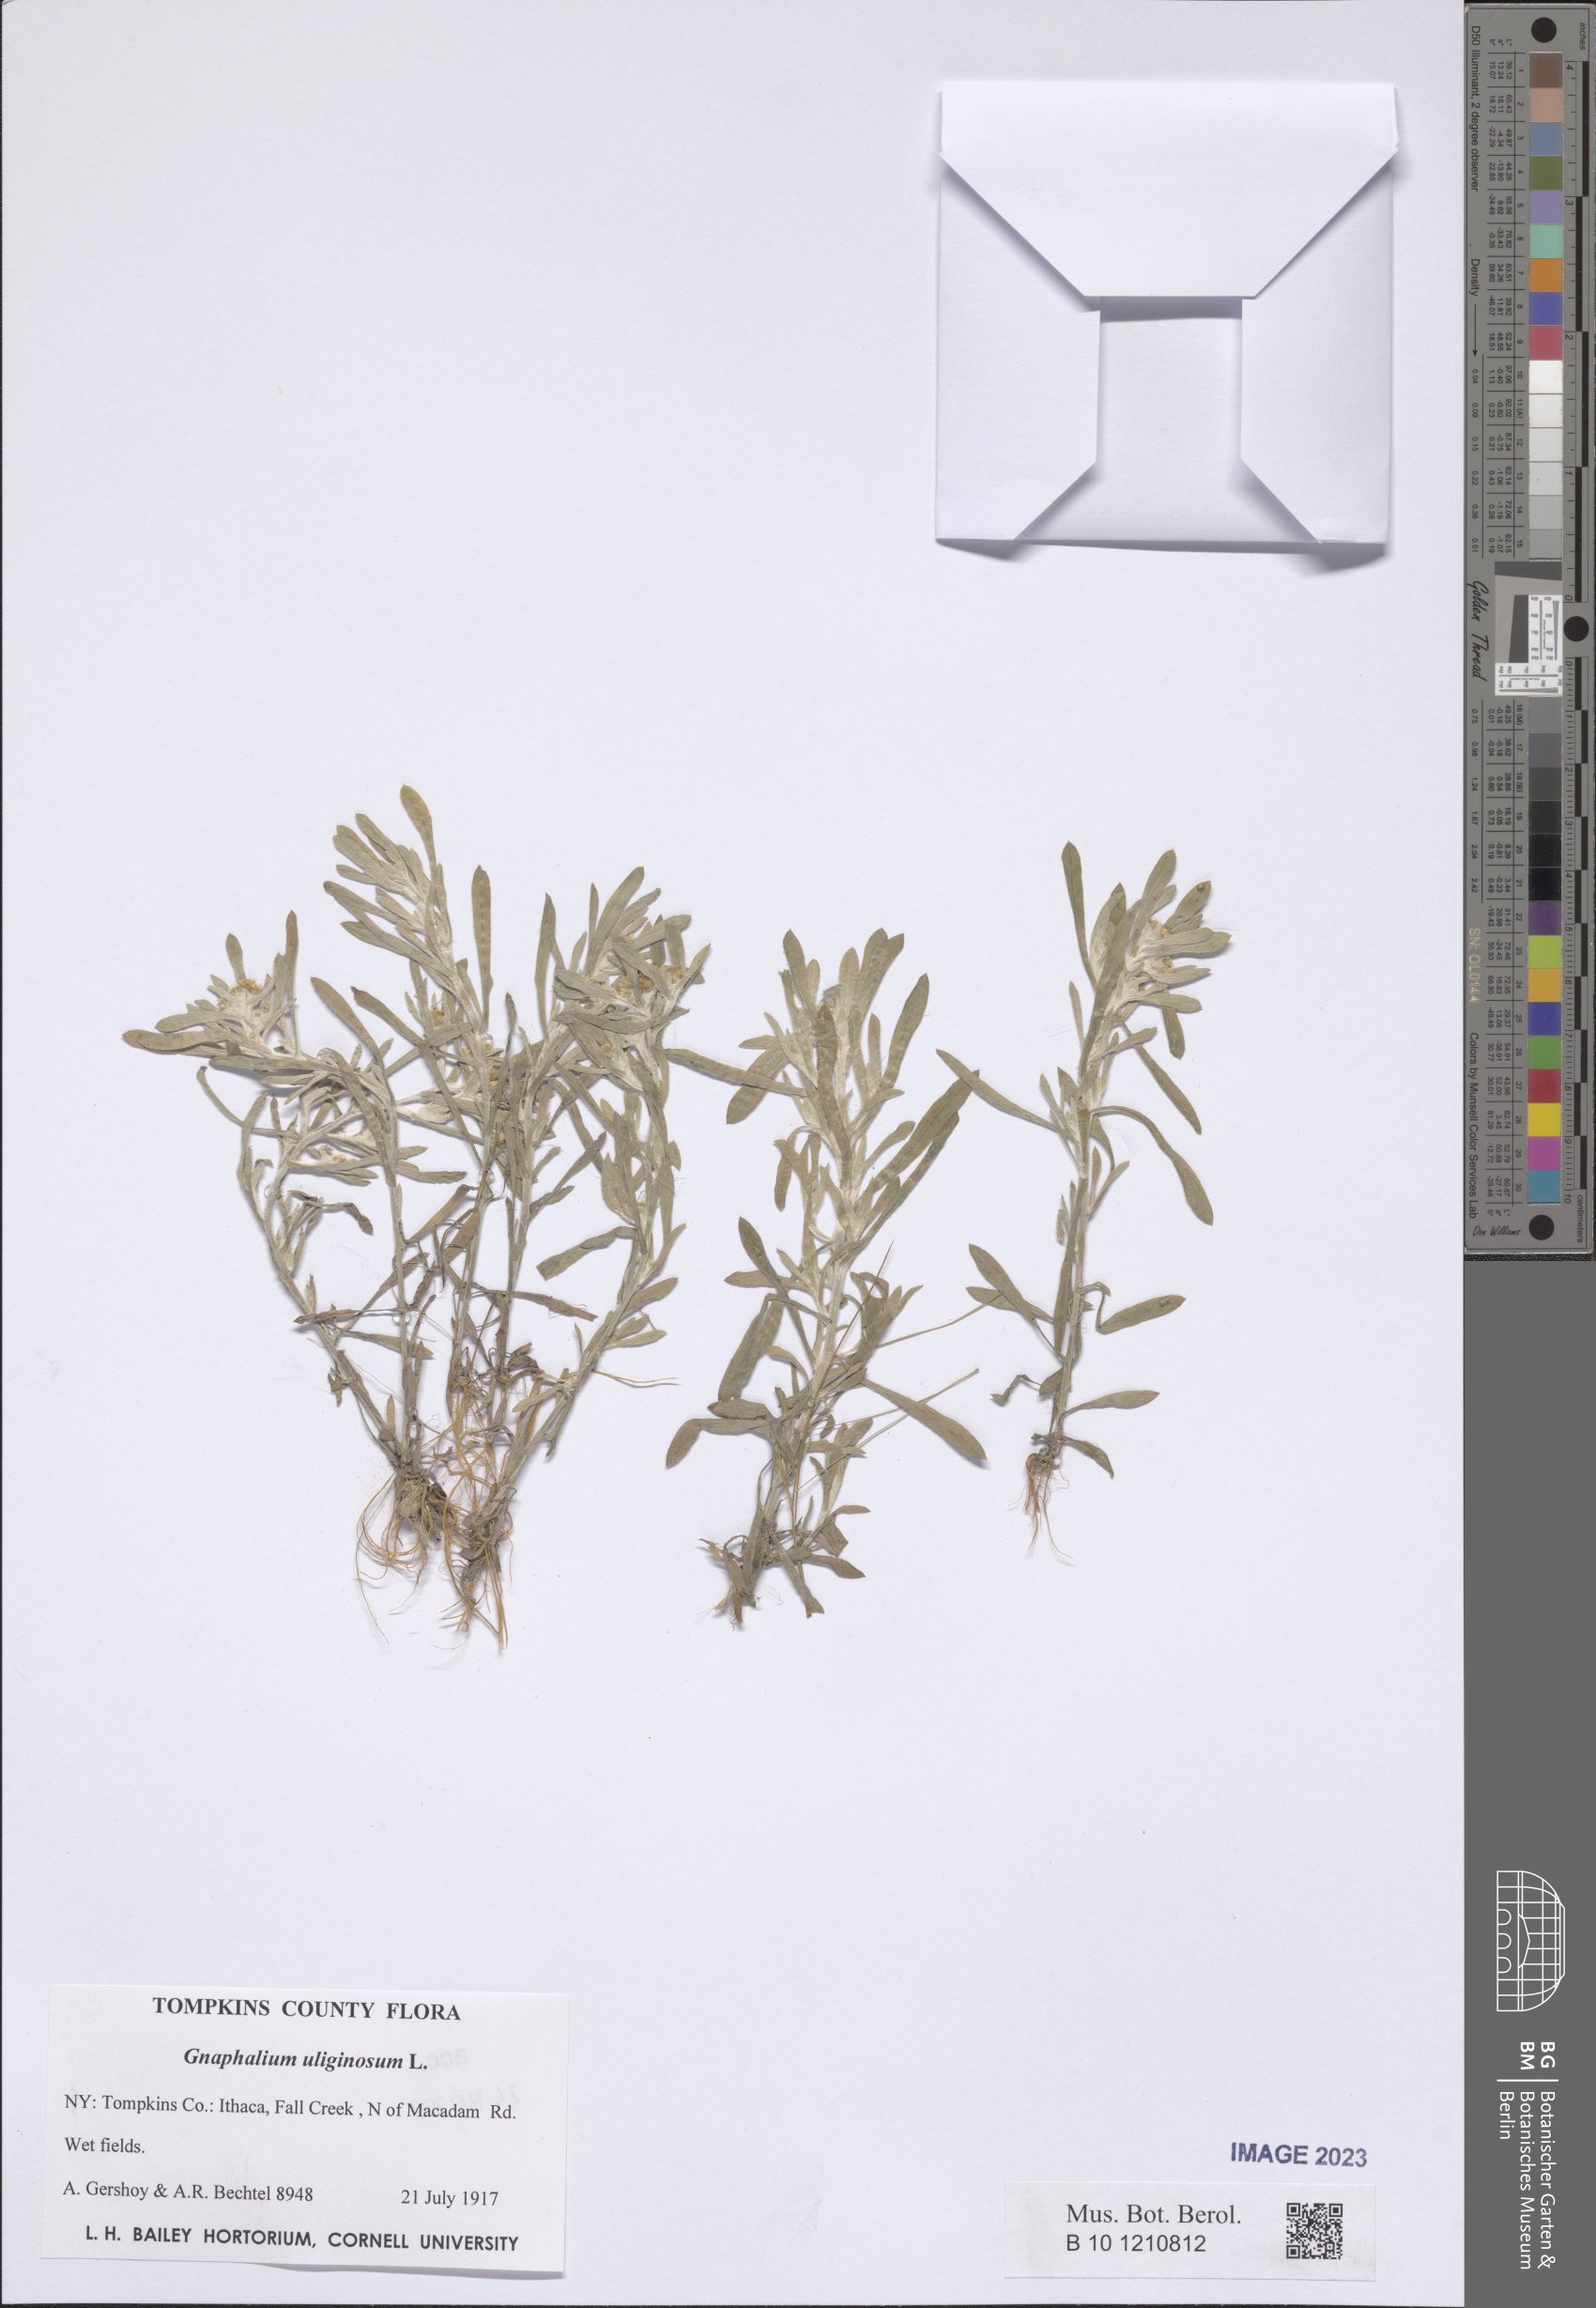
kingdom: Plantae
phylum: Tracheophyta
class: Magnoliopsida
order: Asterales
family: Asteraceae
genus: Gnaphalium
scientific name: Gnaphalium uliginosum
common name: Marsh cudweed
